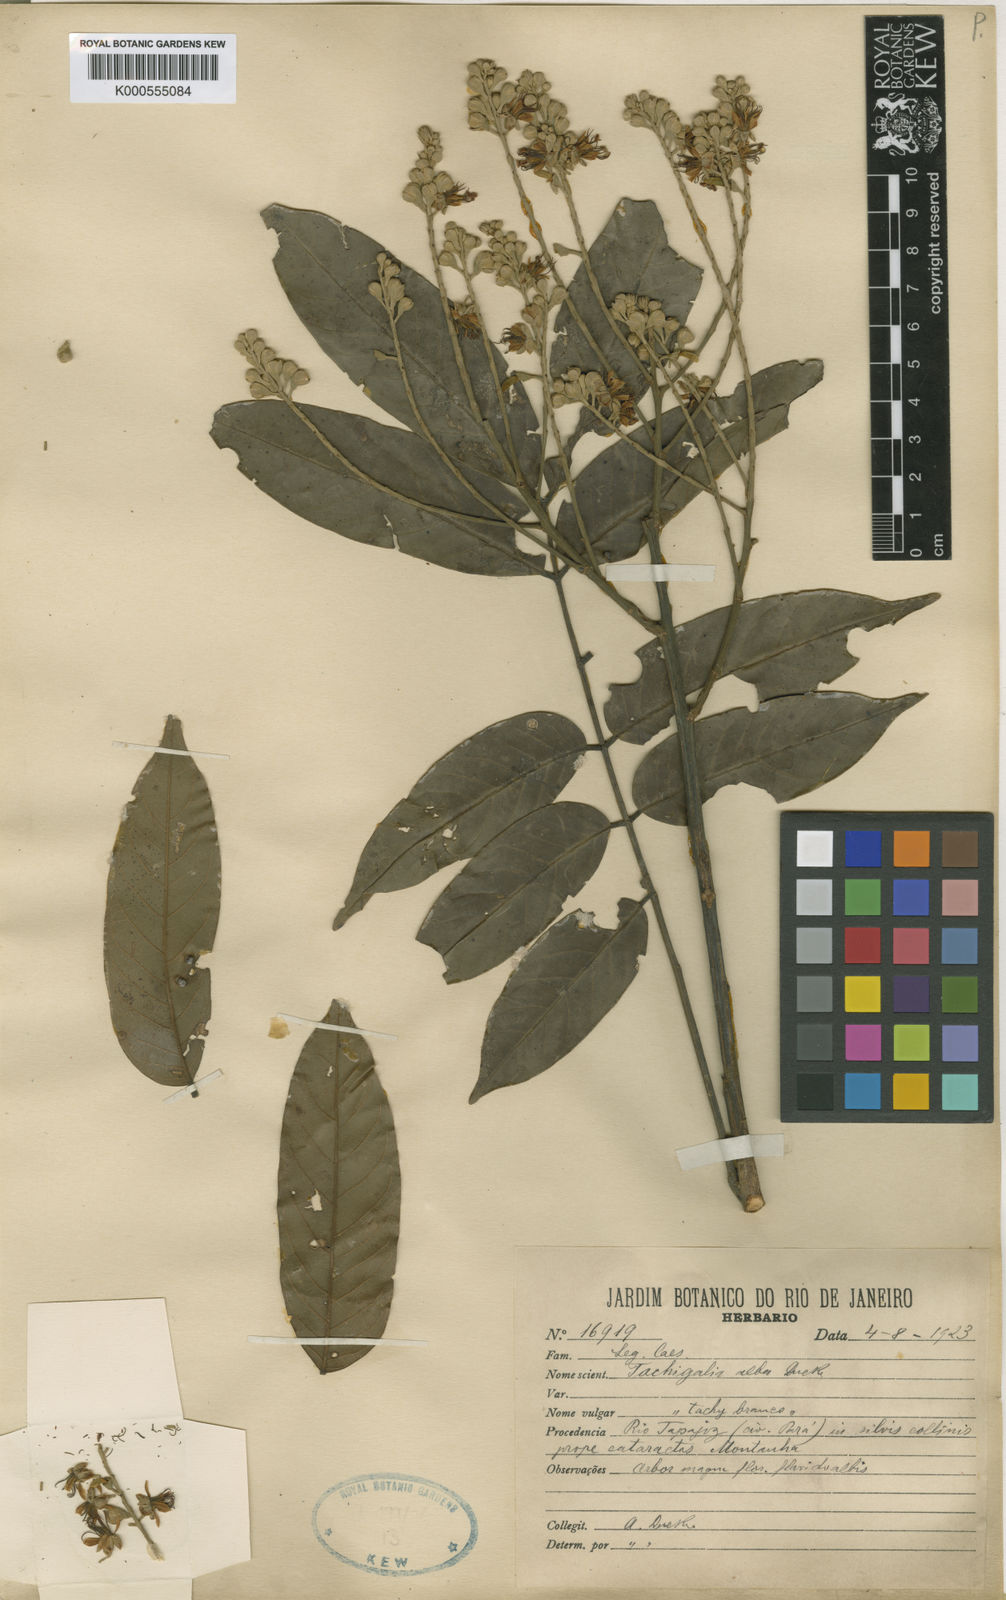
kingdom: Plantae
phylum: Tracheophyta
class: Magnoliopsida
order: Fabales
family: Fabaceae
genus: Tachigali
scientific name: Tachigali alba
